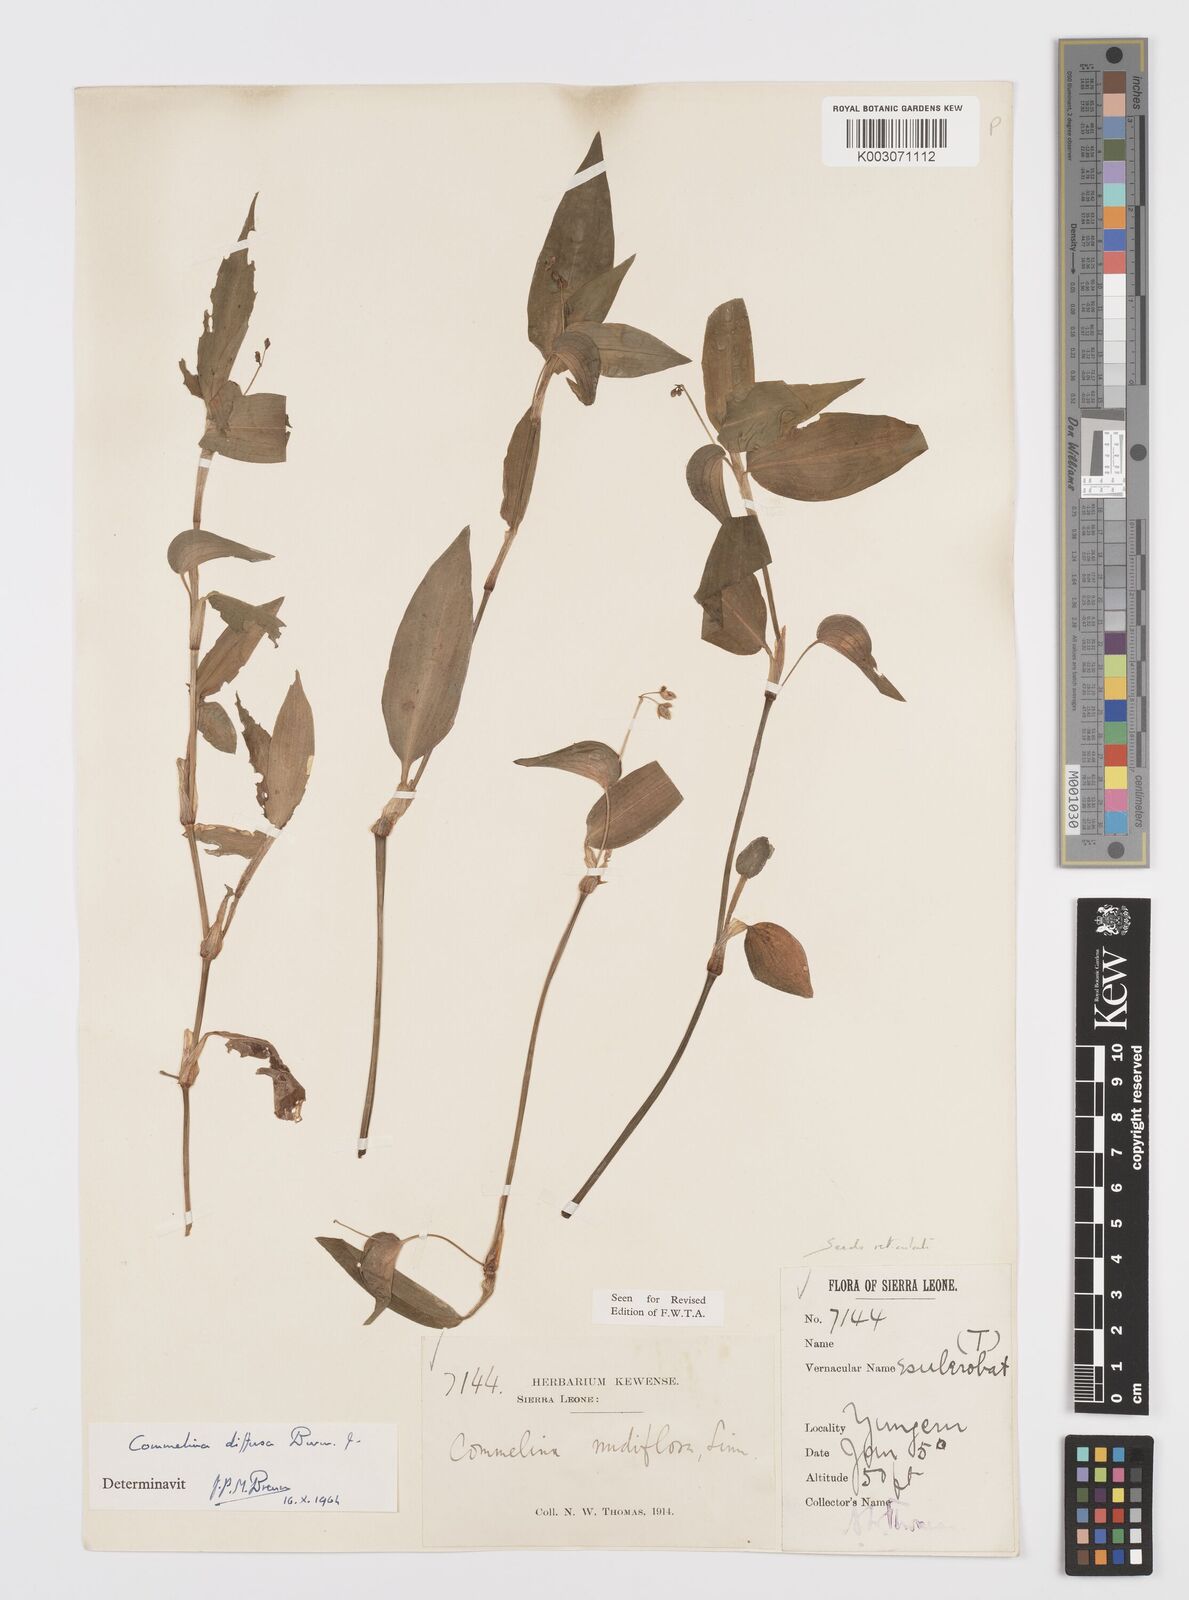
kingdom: Plantae
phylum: Tracheophyta
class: Liliopsida
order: Commelinales
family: Commelinaceae
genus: Commelina
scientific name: Commelina diffusa
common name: Climbing dayflower
